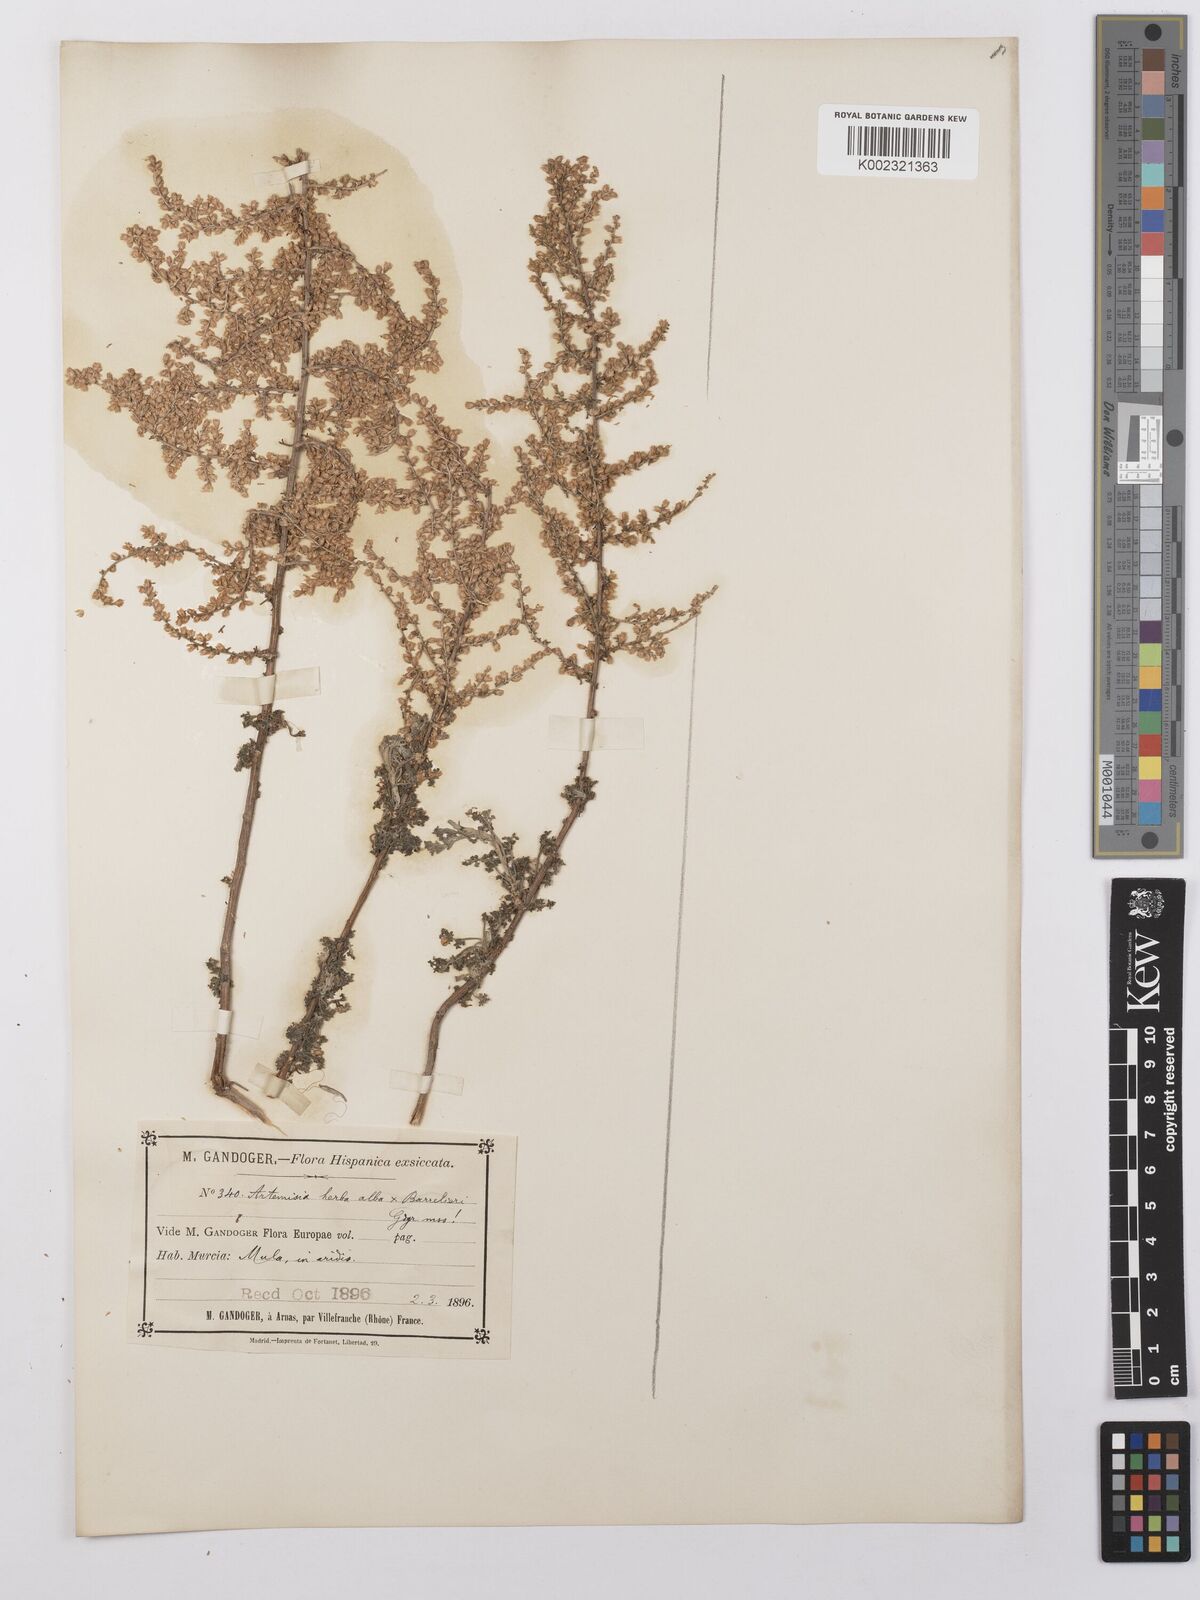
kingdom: Plantae
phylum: Tracheophyta
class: Magnoliopsida
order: Asterales
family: Asteraceae
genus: Artemisia
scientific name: Artemisia herba-alba
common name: White wormwood
